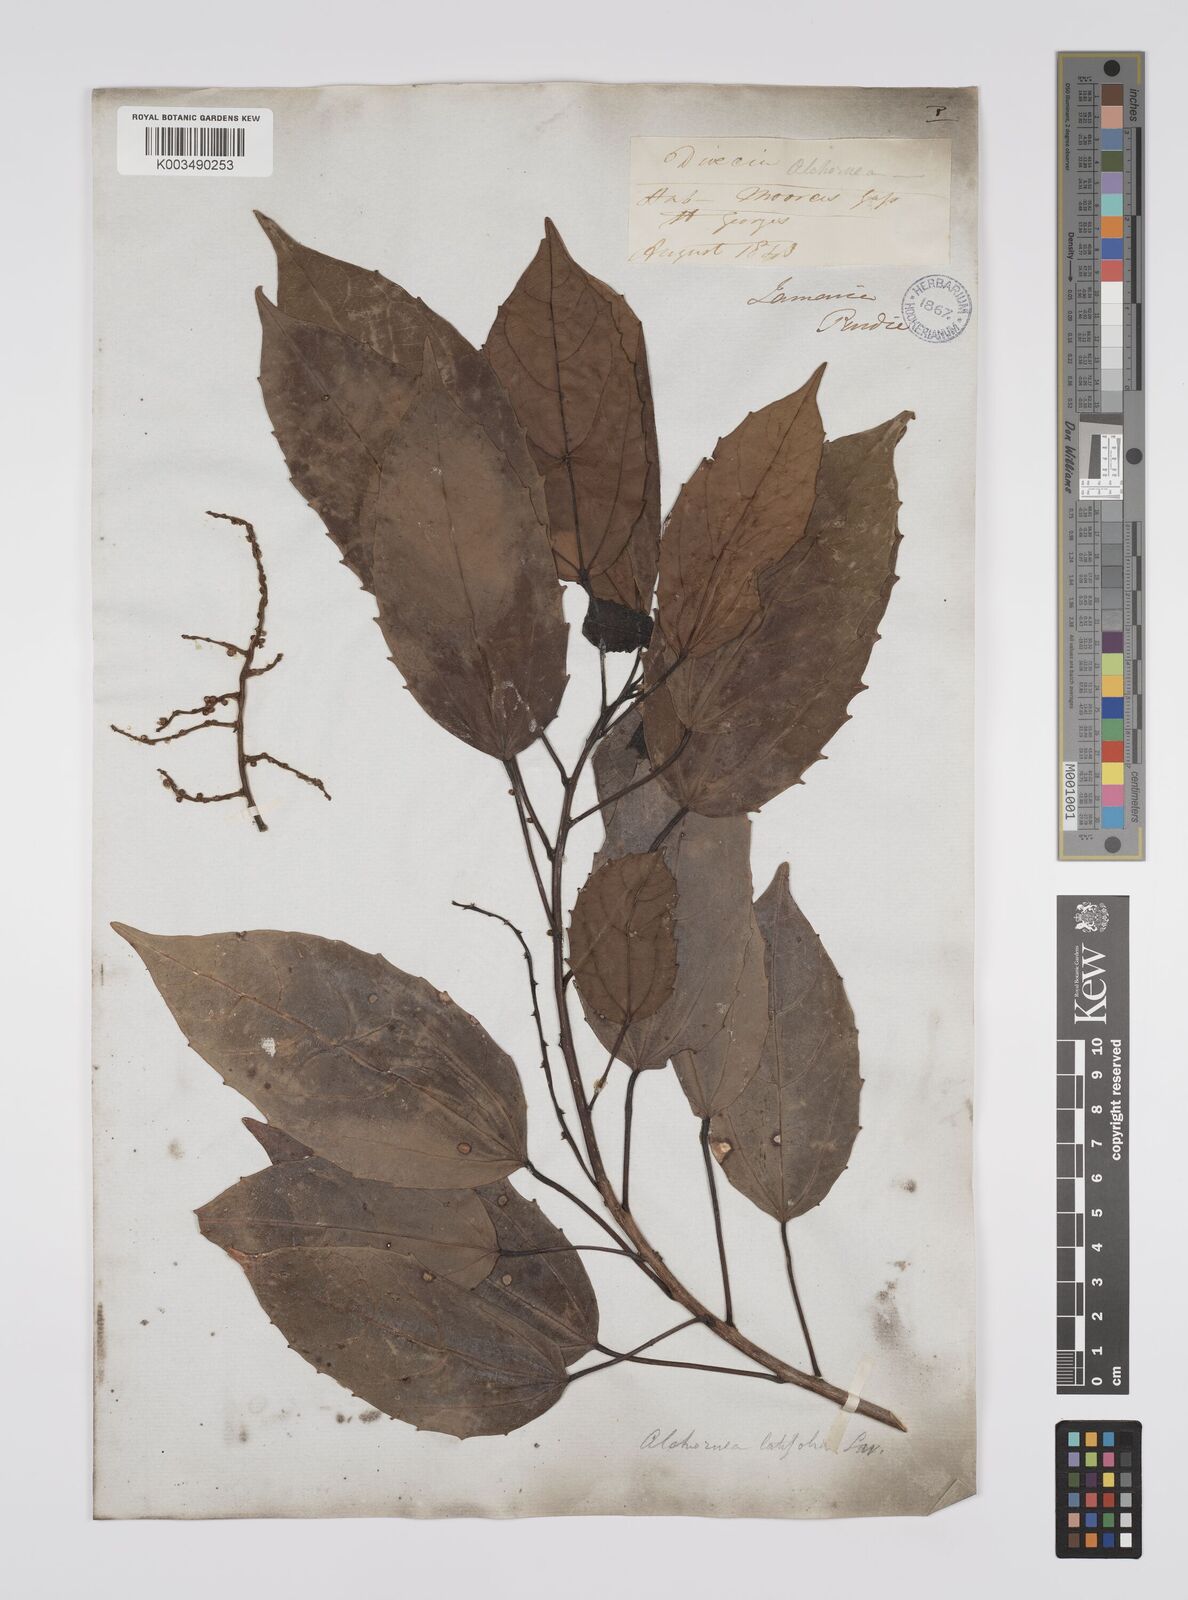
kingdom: Plantae
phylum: Tracheophyta
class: Magnoliopsida
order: Malpighiales
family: Euphorbiaceae
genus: Alchornea
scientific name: Alchornea latifolia
